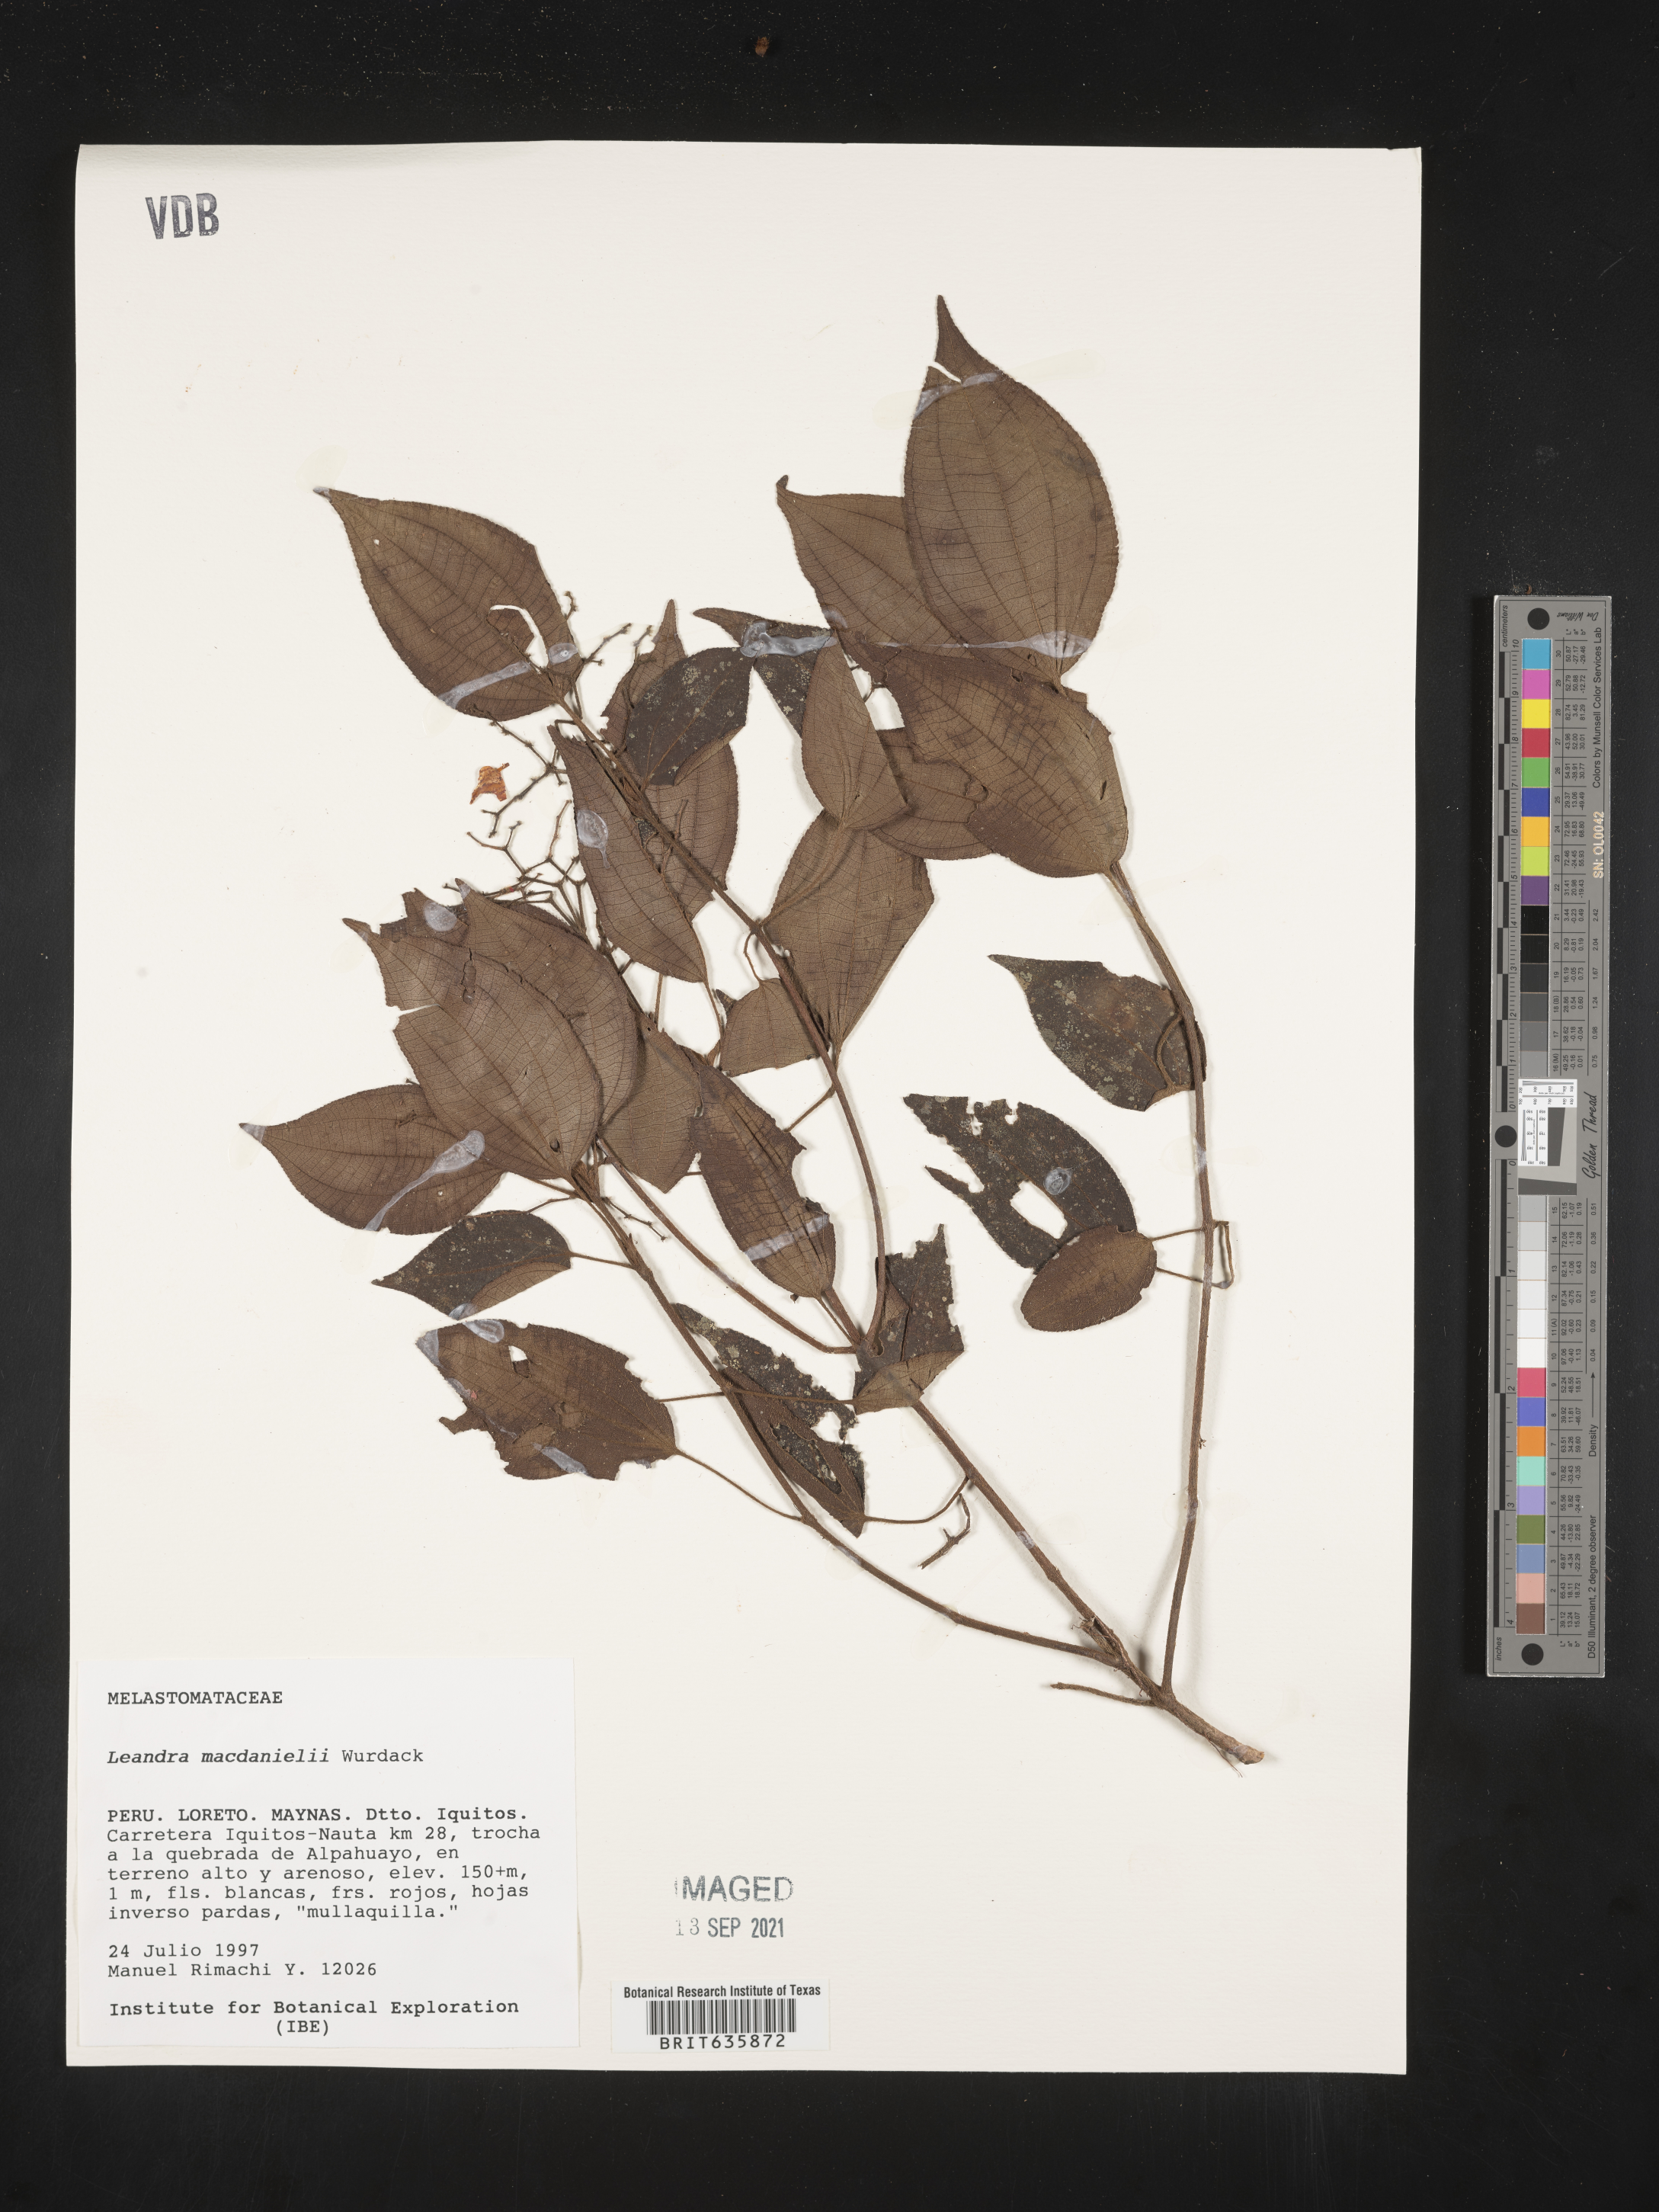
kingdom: Plantae
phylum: Tracheophyta
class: Magnoliopsida
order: Myrtales
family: Melastomataceae
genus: Miconia
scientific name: Miconia
